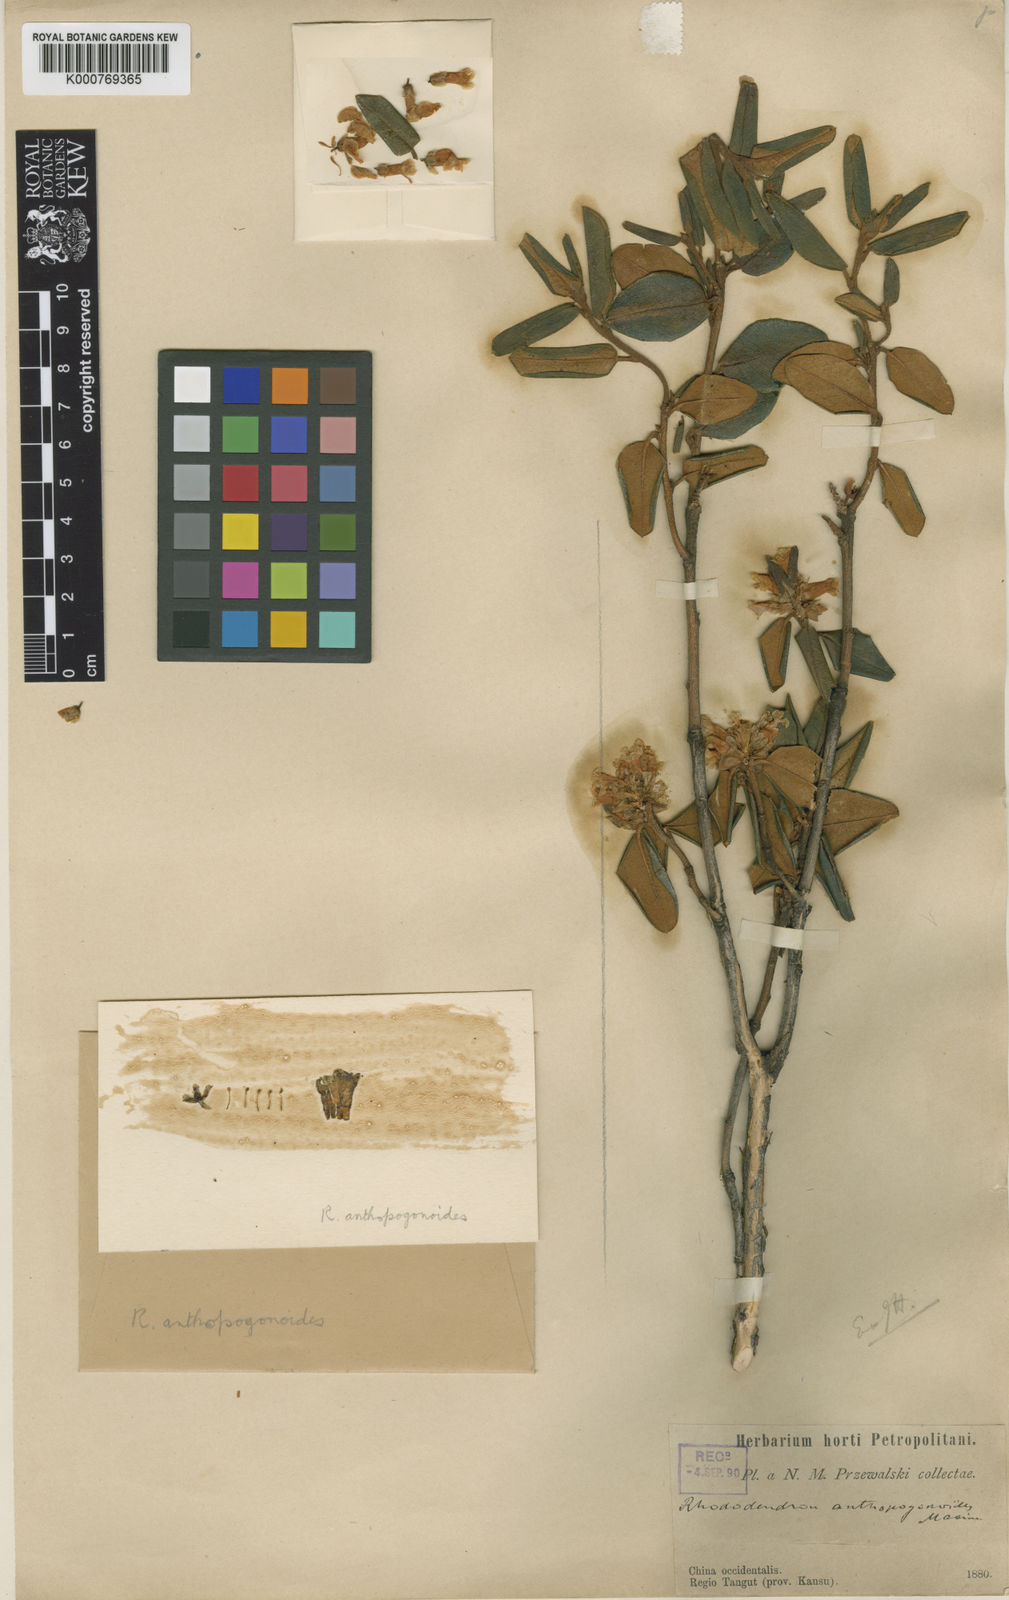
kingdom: Plantae
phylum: Tracheophyta
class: Magnoliopsida
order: Ericales
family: Ericaceae
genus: Rhododendron
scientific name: Rhododendron anthopogonoides
